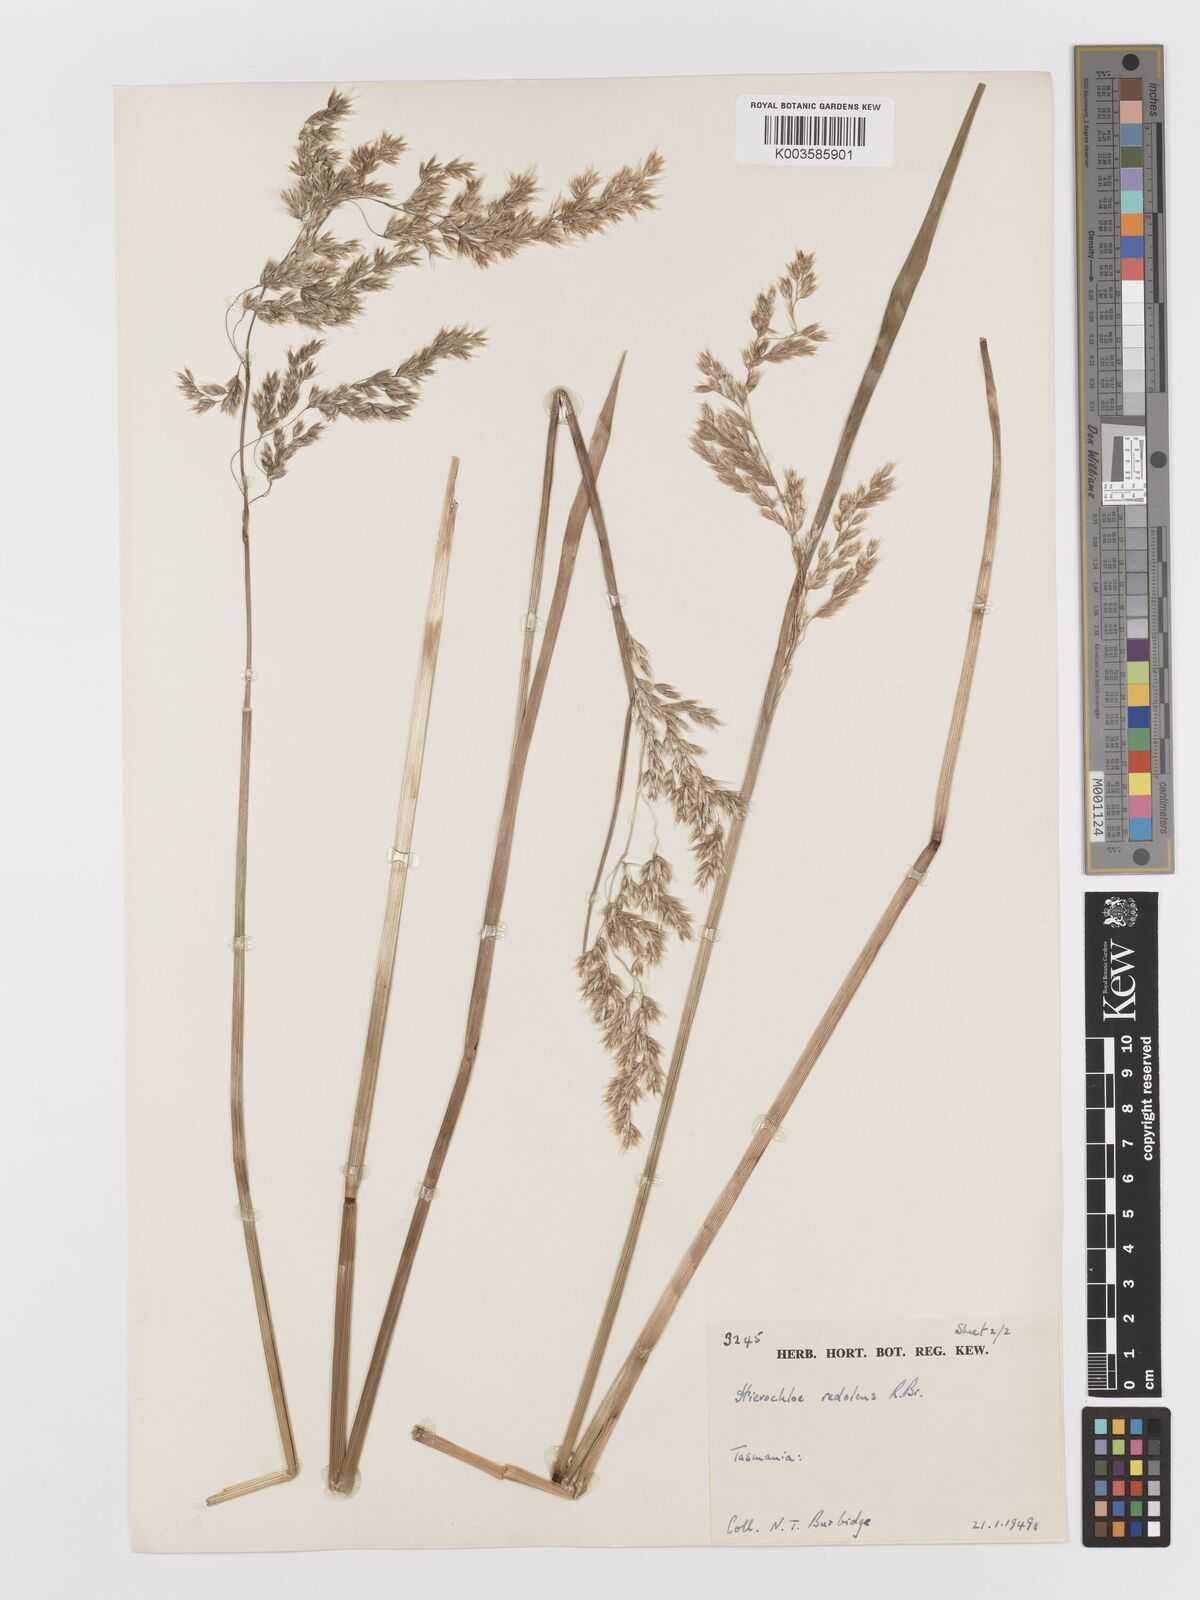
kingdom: Plantae
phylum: Tracheophyta
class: Liliopsida
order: Poales
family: Poaceae
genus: Anthoxanthum
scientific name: Anthoxanthum redolens
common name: Sweet holy grass
